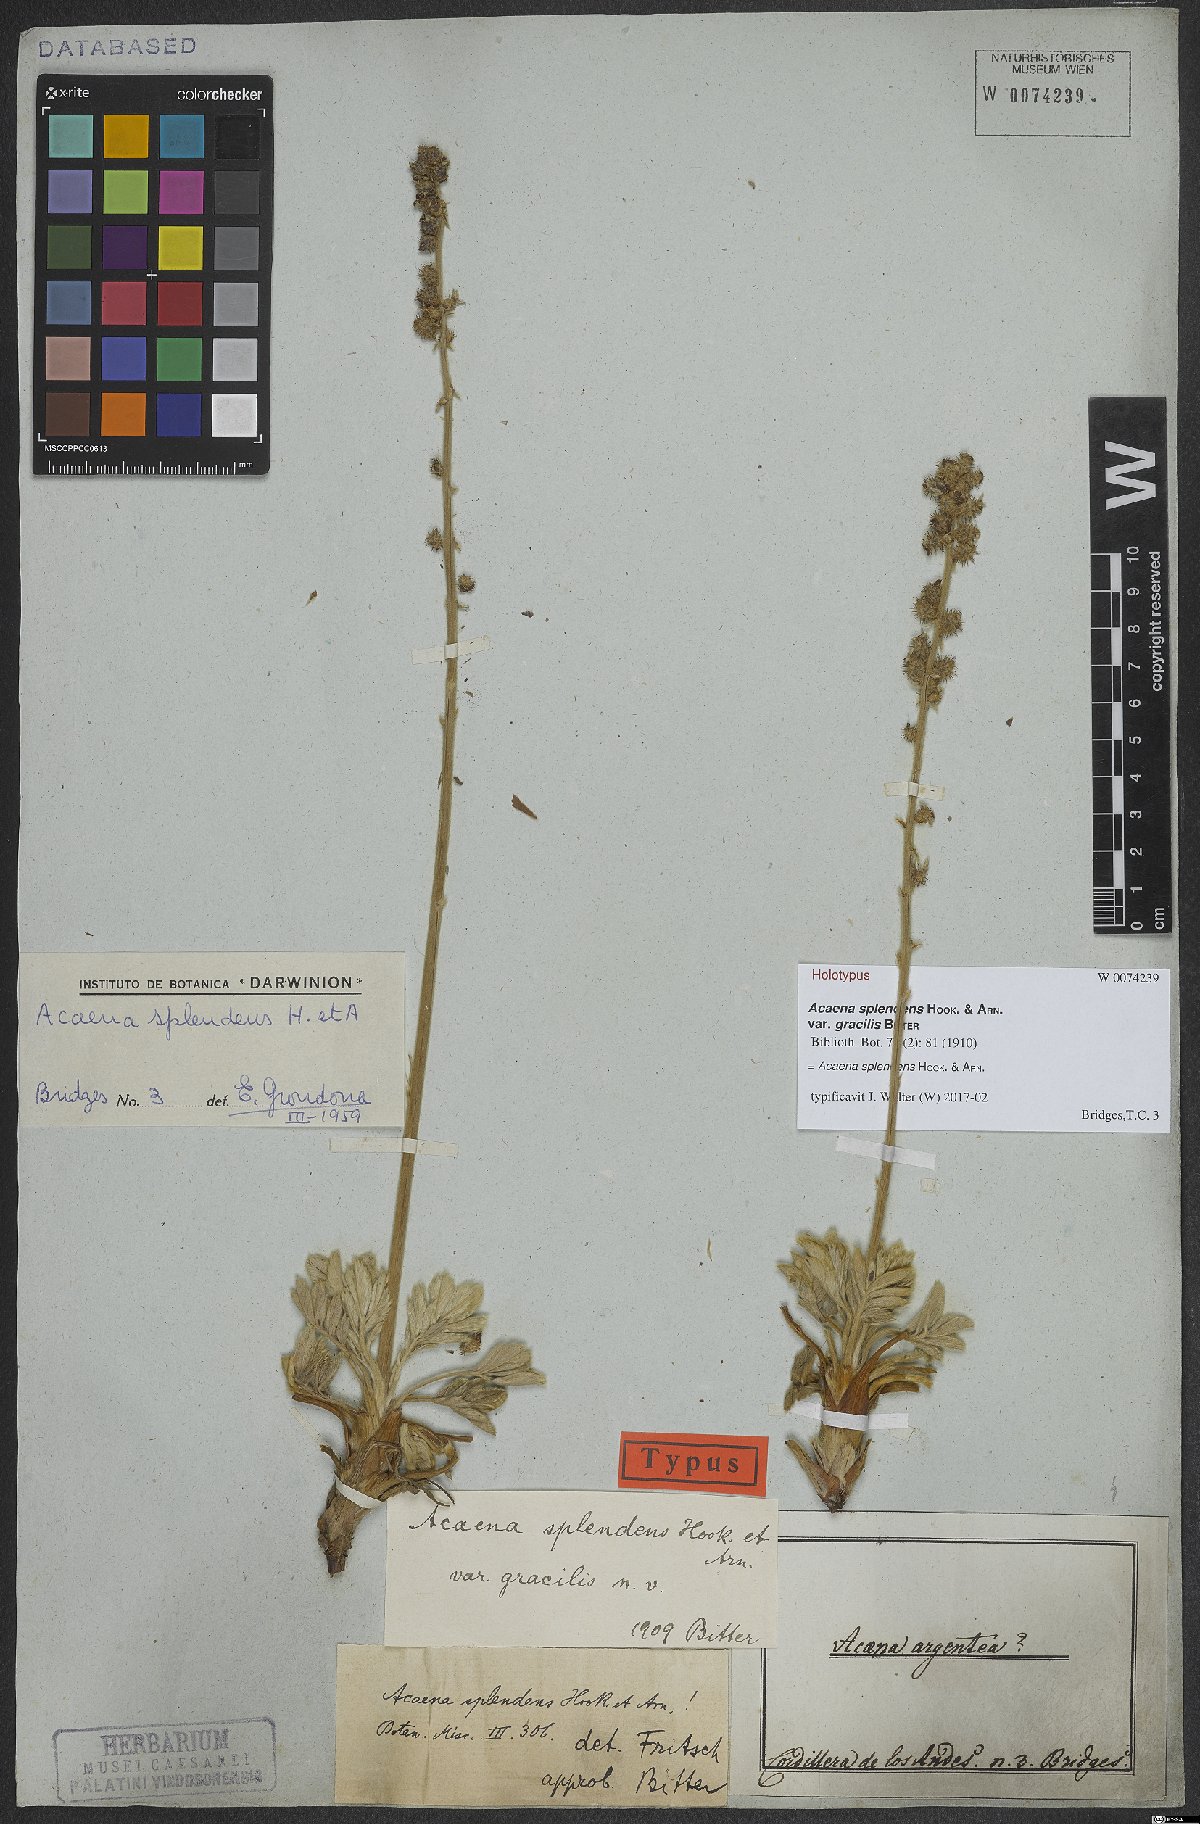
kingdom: Plantae
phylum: Tracheophyta
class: Magnoliopsida
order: Rosales
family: Rosaceae
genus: Acaena
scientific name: Acaena splendens
